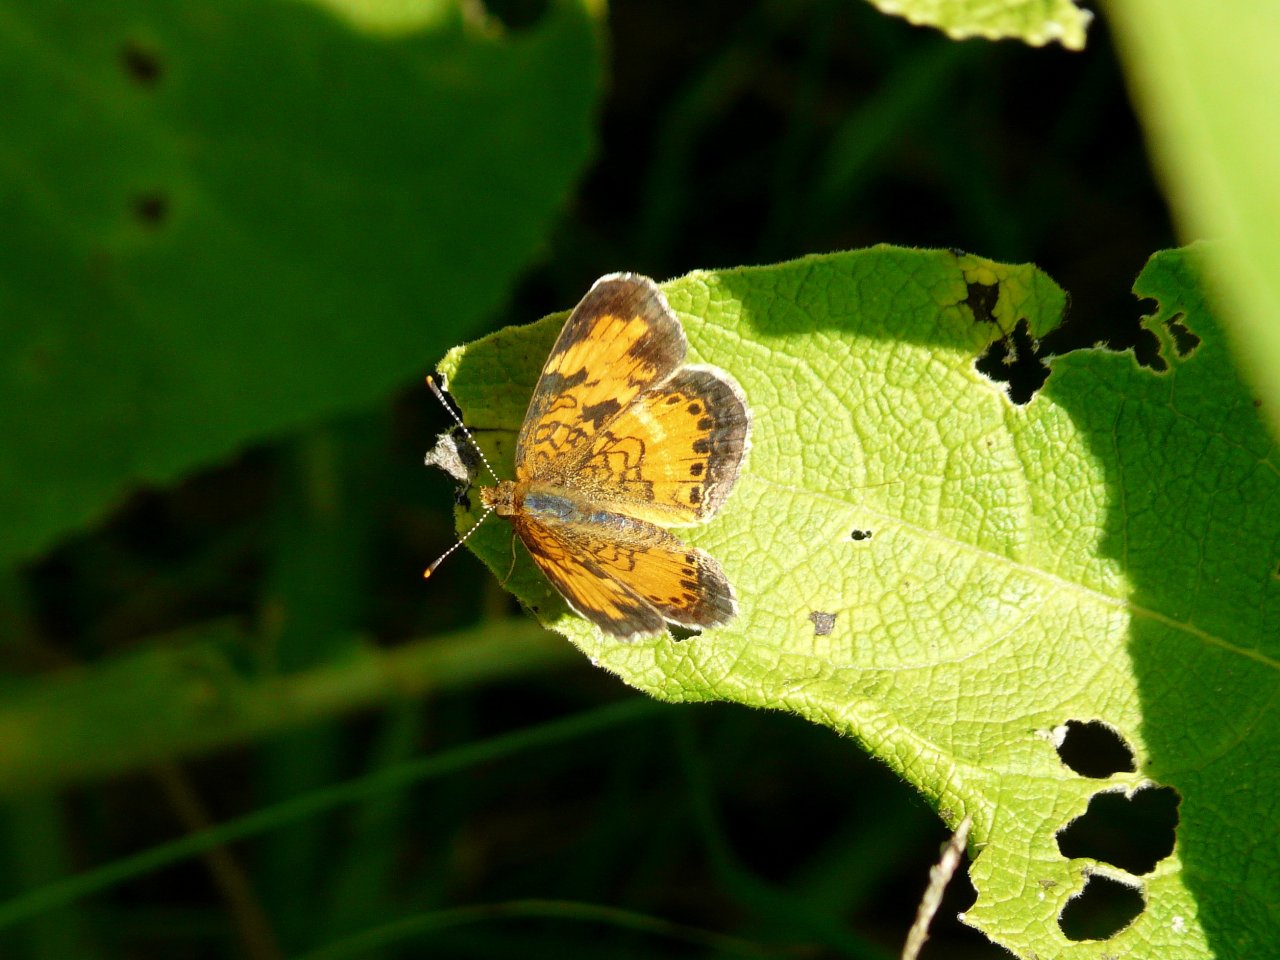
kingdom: Animalia
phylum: Arthropoda
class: Insecta
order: Lepidoptera
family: Nymphalidae
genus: Phyciodes
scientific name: Phyciodes tharos
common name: Northern Crescent
